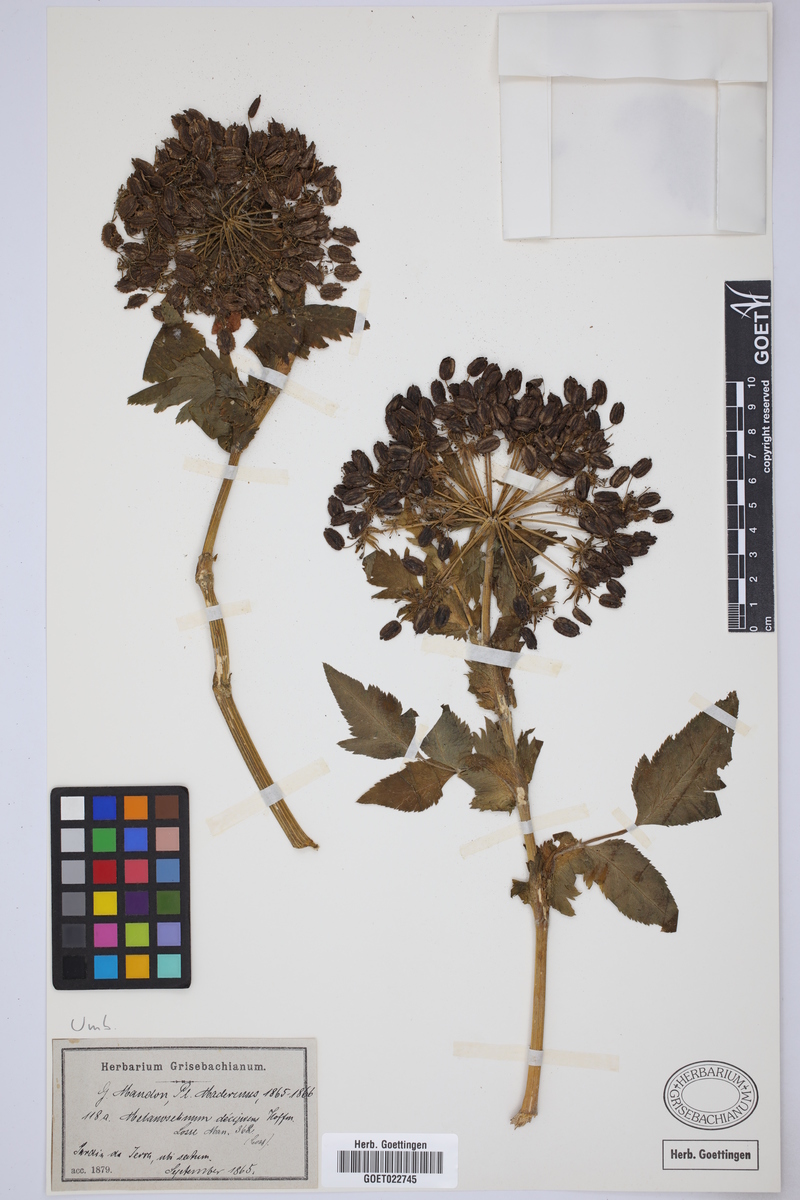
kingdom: Plantae
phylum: Tracheophyta
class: Magnoliopsida
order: Apiales
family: Apiaceae
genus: Daucus
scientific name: Daucus decipiens
